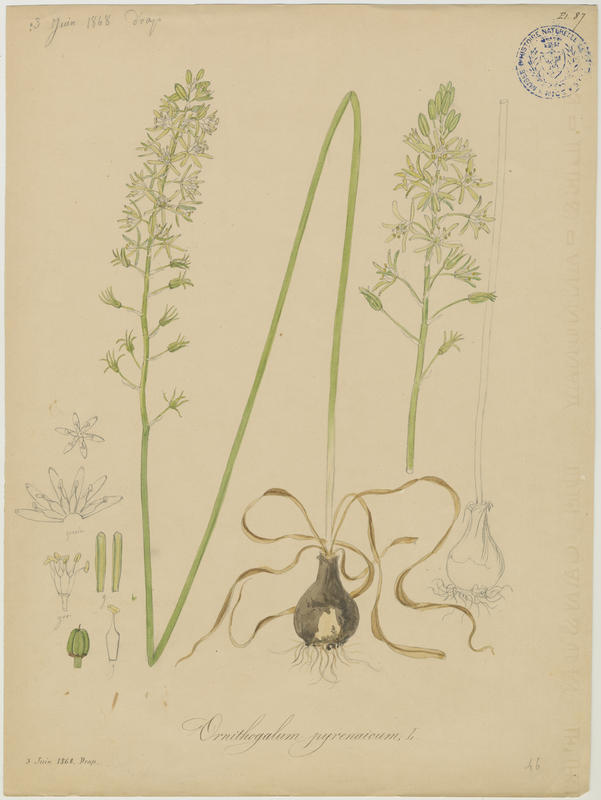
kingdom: Plantae
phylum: Tracheophyta
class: Liliopsida
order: Asparagales
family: Asparagaceae
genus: Ornithogalum
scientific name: Ornithogalum pyrenaicum
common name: Spiked star-of-bethlehem
